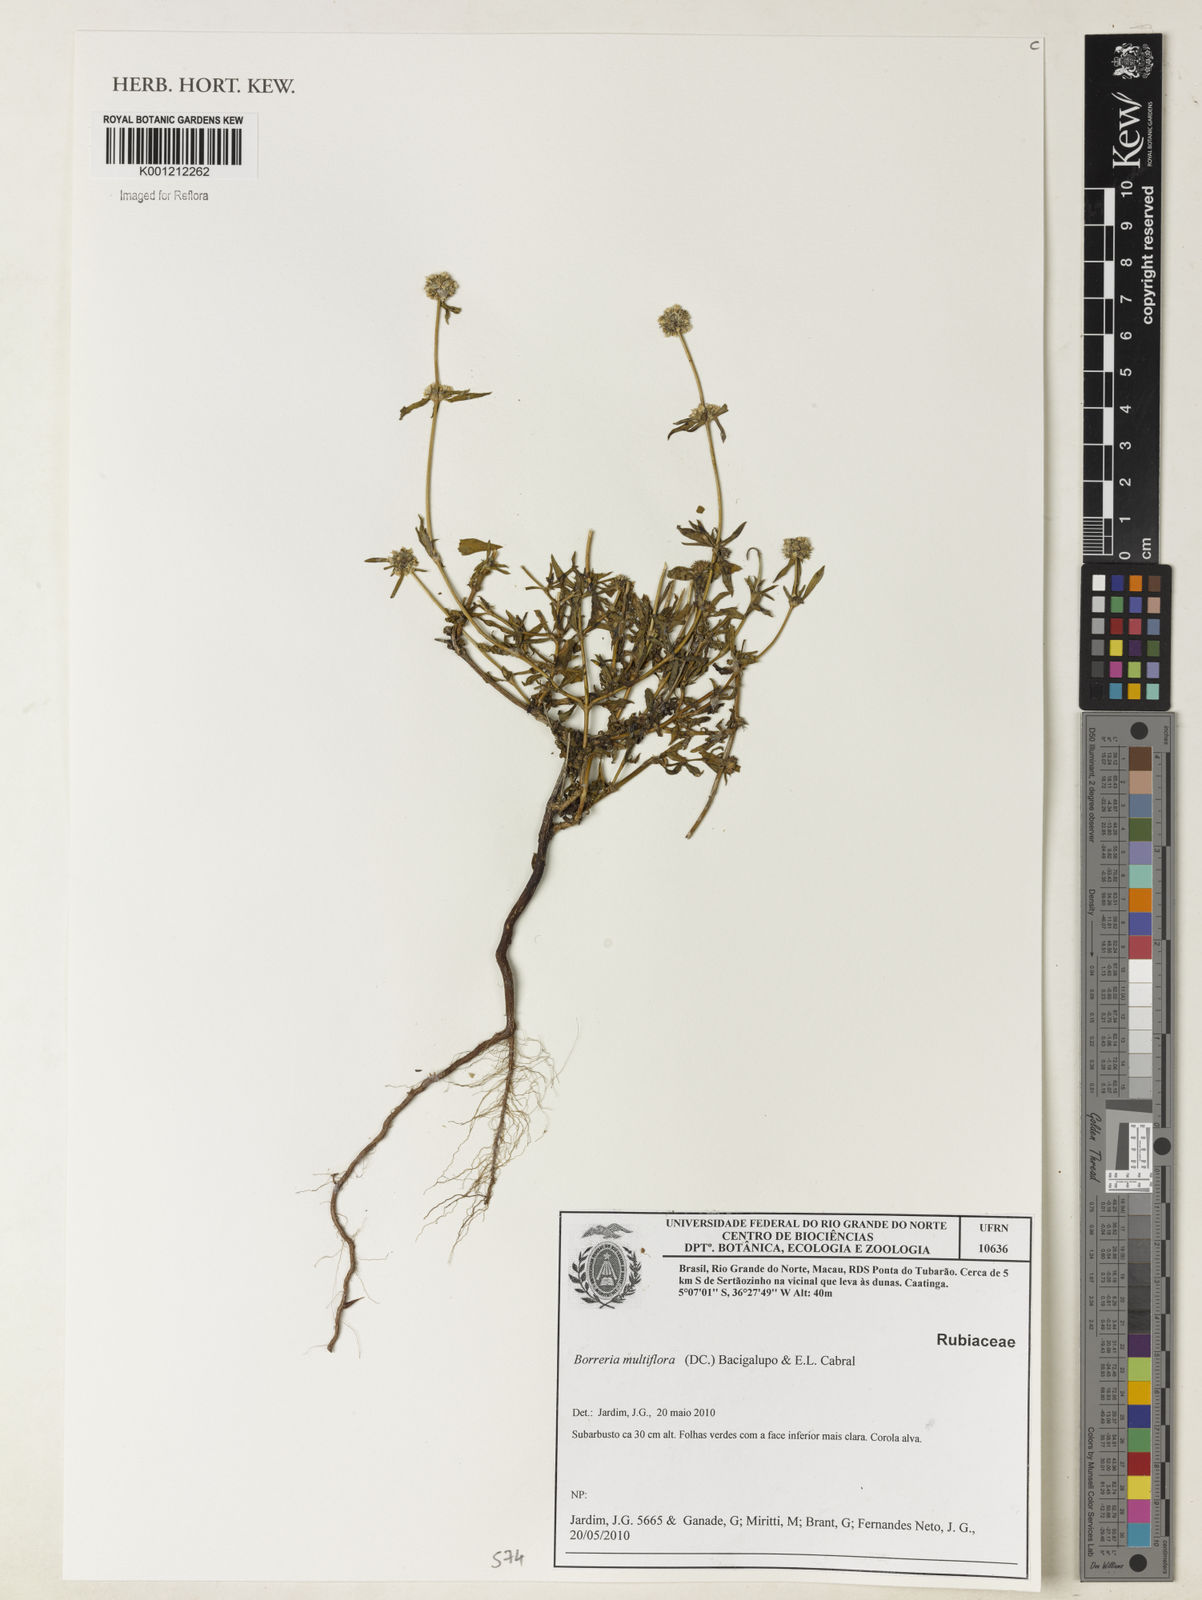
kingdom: Plantae
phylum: Tracheophyta
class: Magnoliopsida
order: Gentianales
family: Rubiaceae
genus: Spermacoce
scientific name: Spermacoce multiflora
